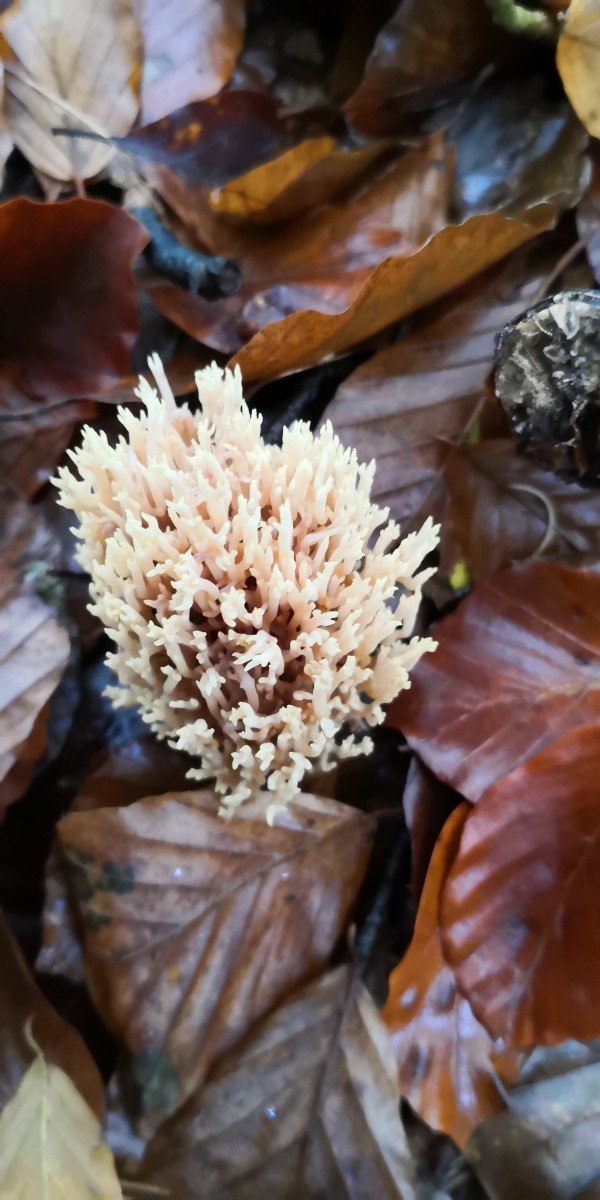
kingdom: Fungi
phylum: Basidiomycota
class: Agaricomycetes
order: Gomphales
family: Gomphaceae
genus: Ramaria
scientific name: Ramaria stricta
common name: rank koralsvamp
